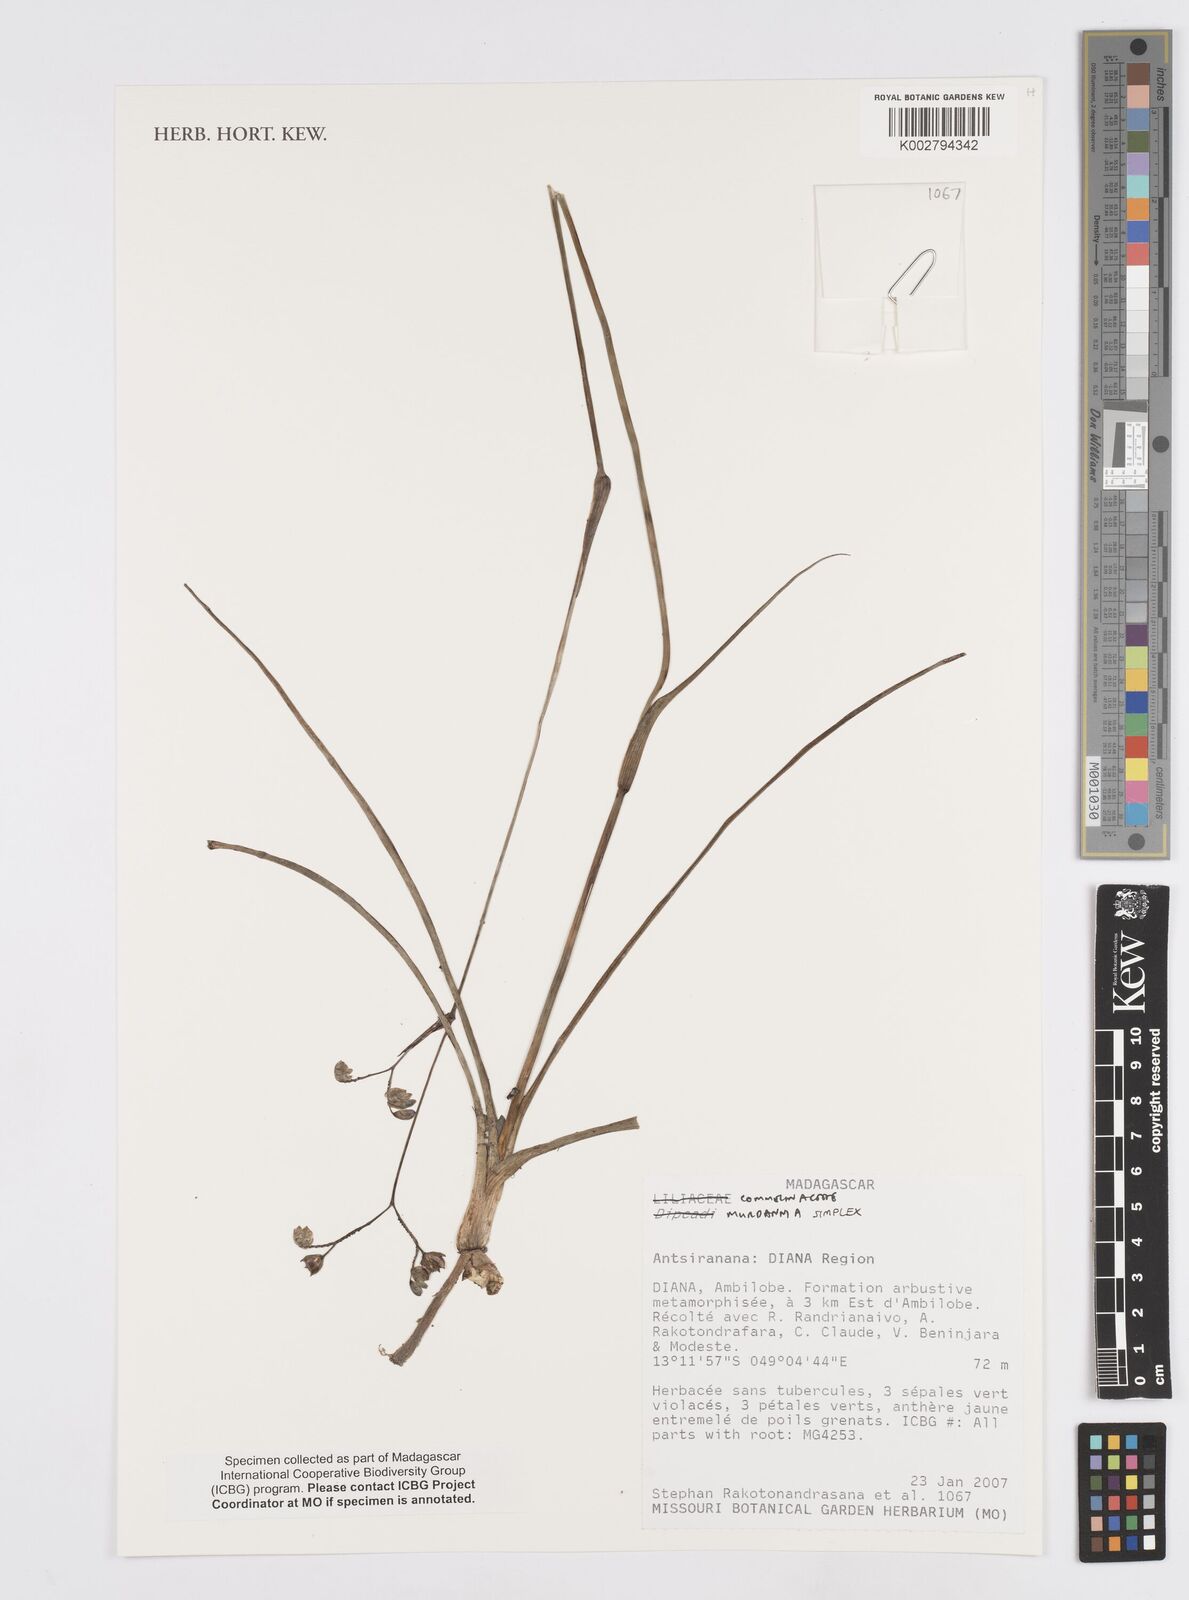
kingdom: Plantae
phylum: Tracheophyta
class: Liliopsida
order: Commelinales
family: Commelinaceae
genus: Murdannia
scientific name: Murdannia simplex
